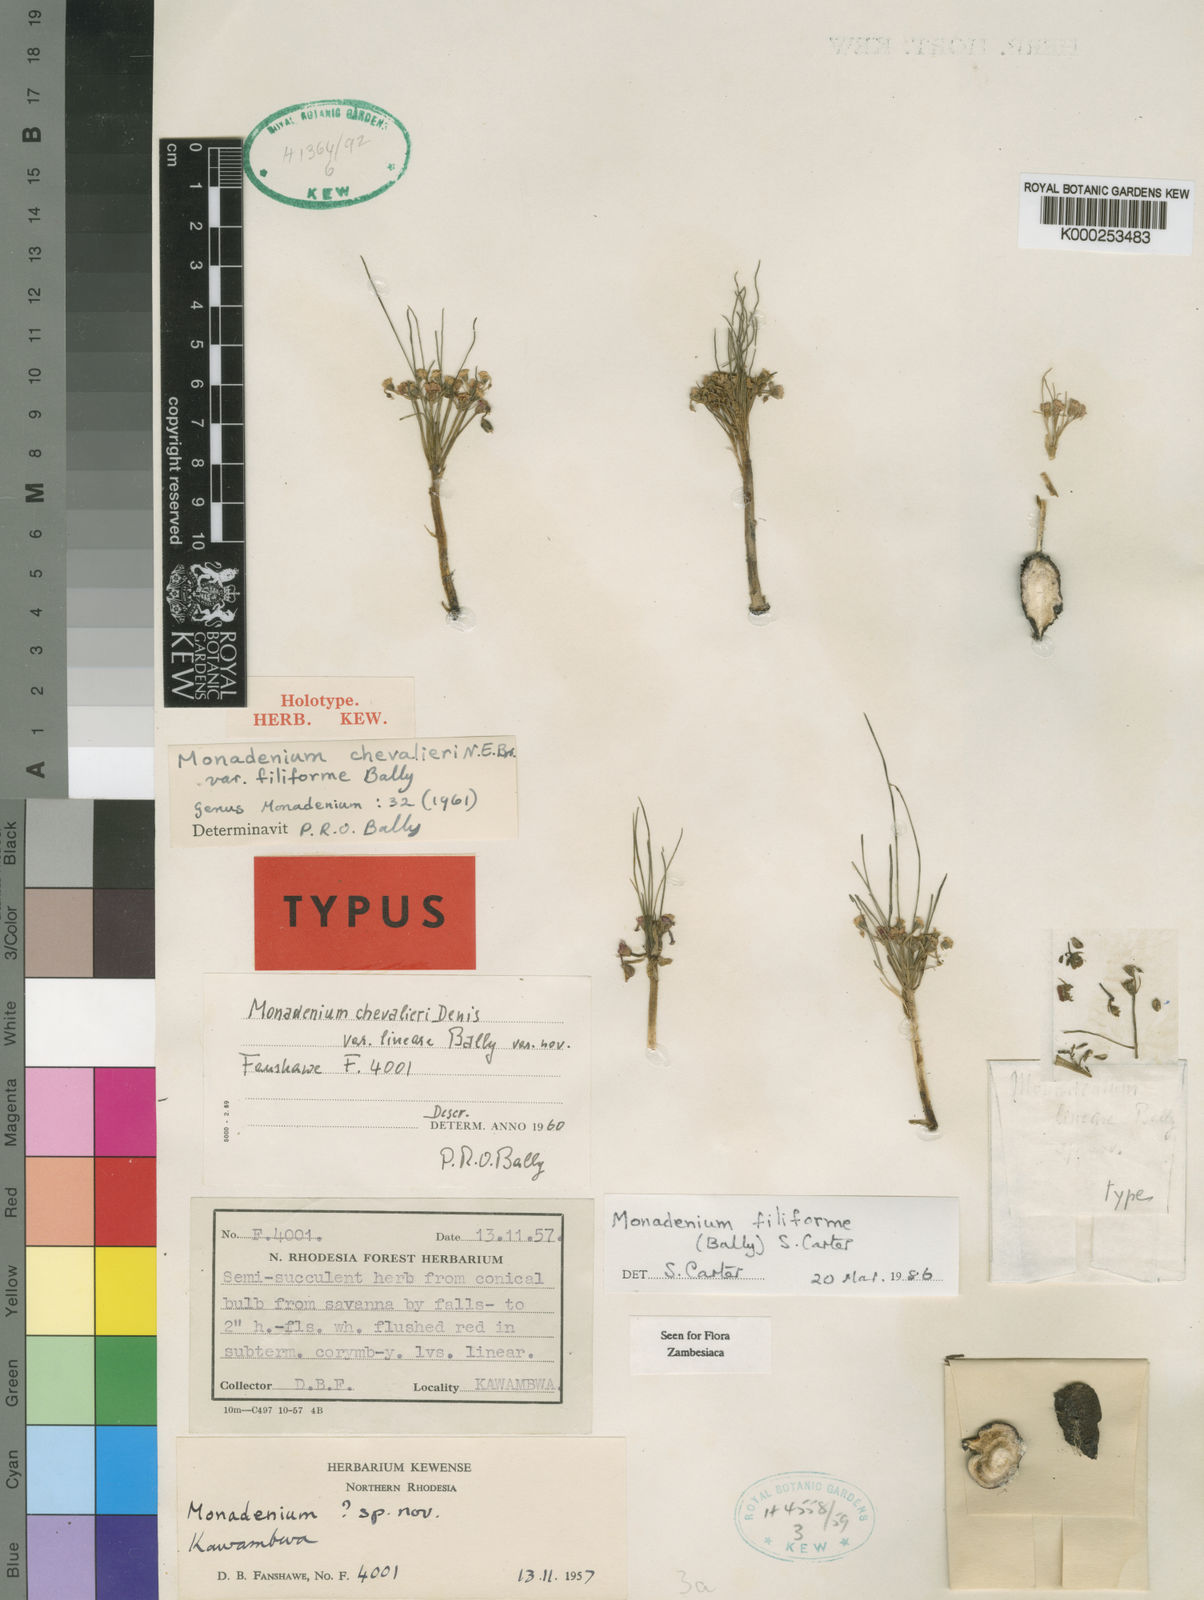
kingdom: Plantae
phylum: Tracheophyta
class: Magnoliopsida
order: Malpighiales
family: Euphorbiaceae
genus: Euphorbia
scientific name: Euphorbia filiformis
